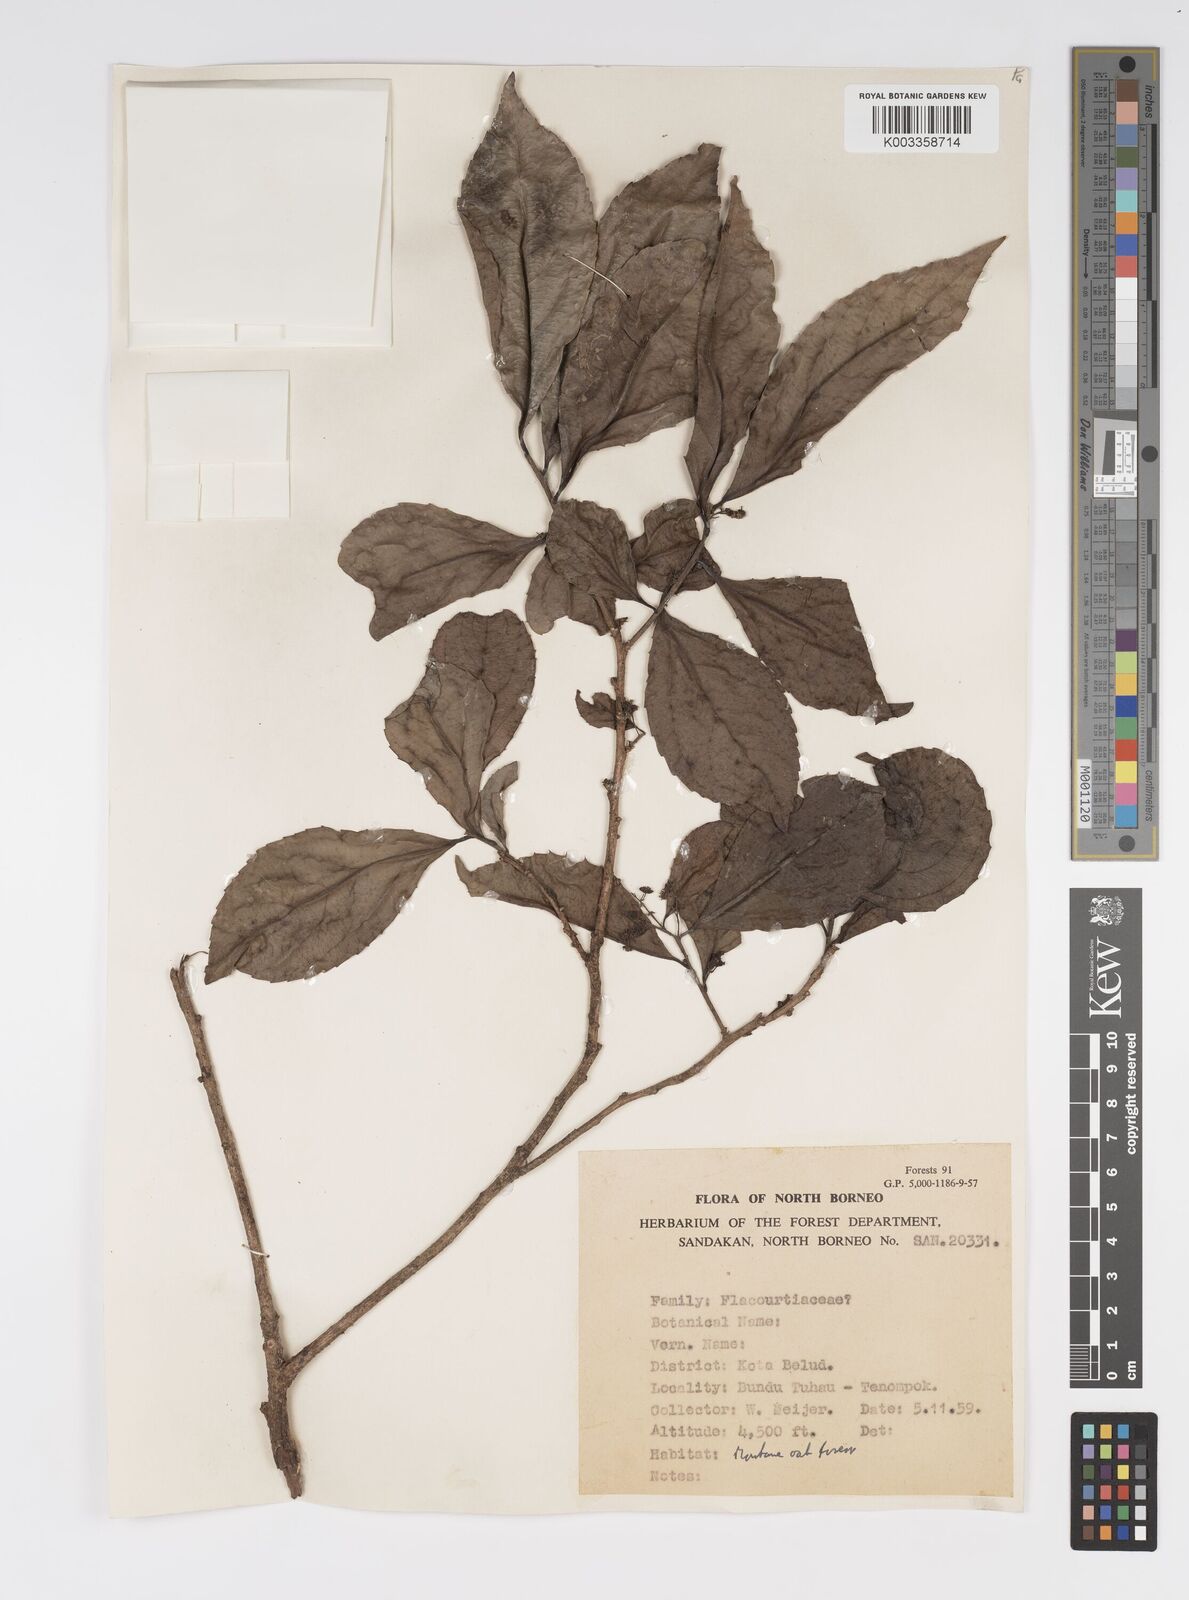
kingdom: Plantae
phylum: Tracheophyta
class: Magnoliopsida
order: Malpighiales
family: Salicaceae
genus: Xylosma
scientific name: Xylosma sumatrana
